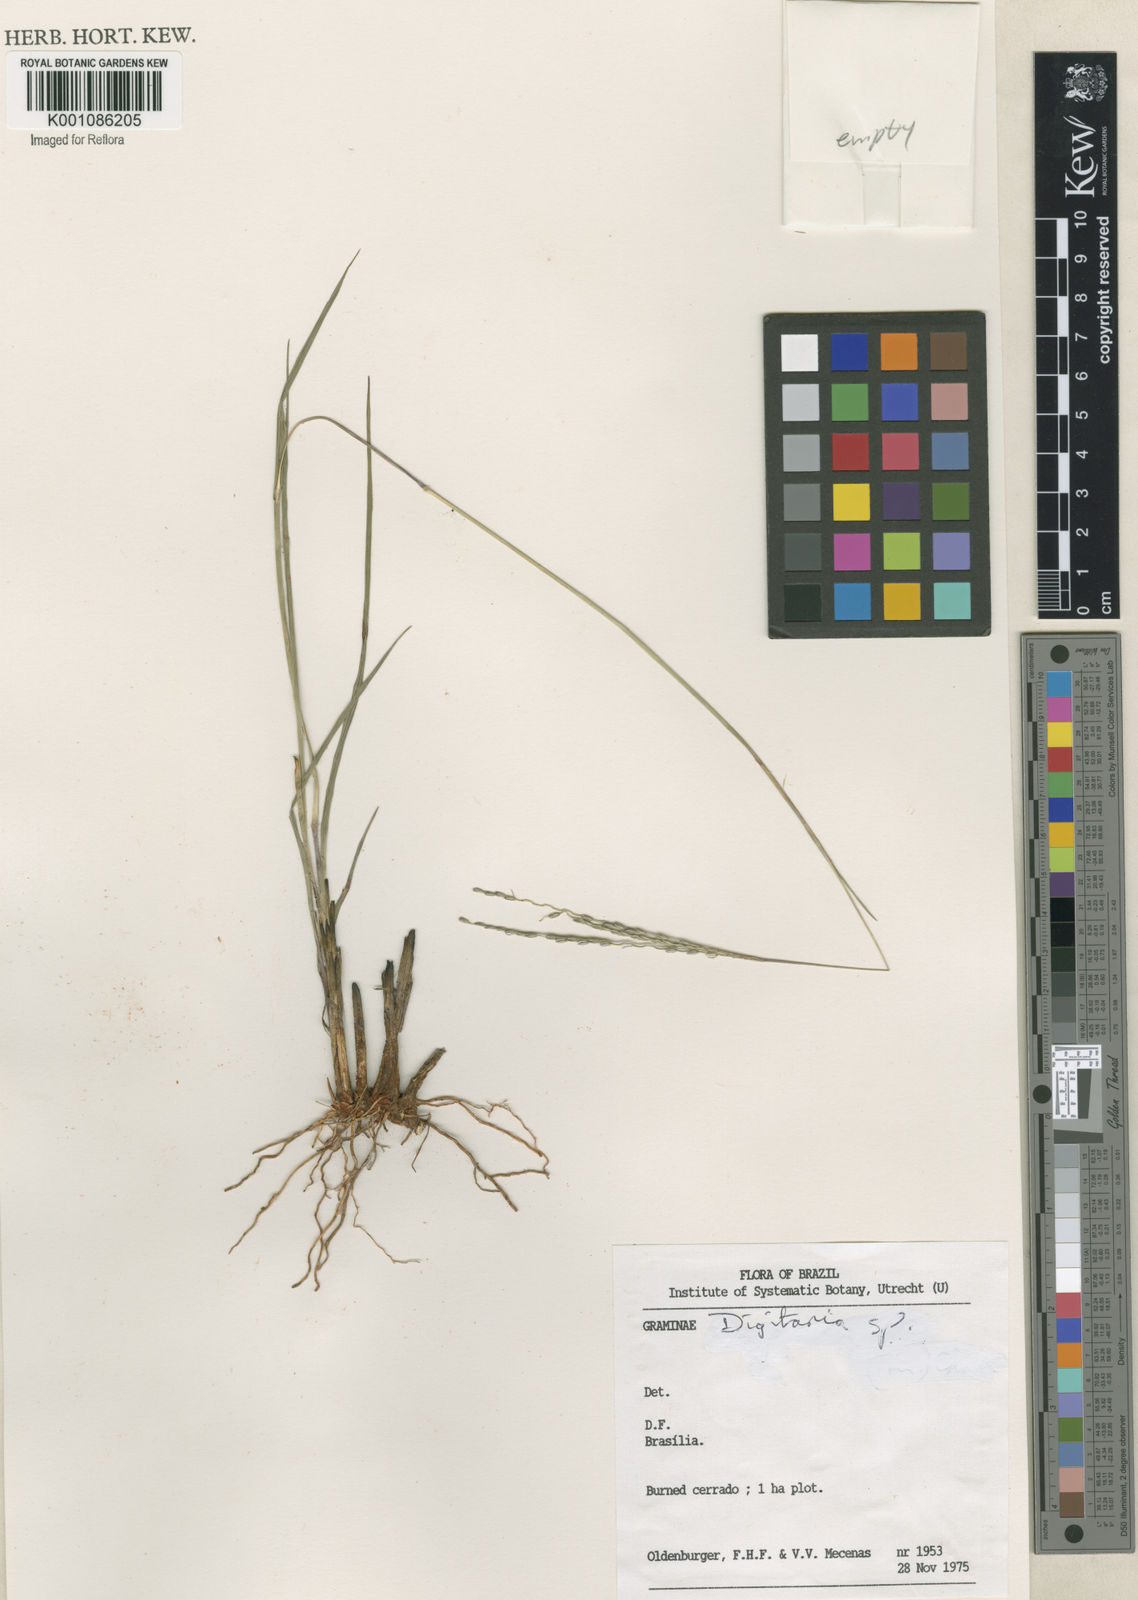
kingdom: Plantae
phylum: Tracheophyta
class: Liliopsida
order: Poales
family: Poaceae
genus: Axonopus
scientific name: Axonopus
